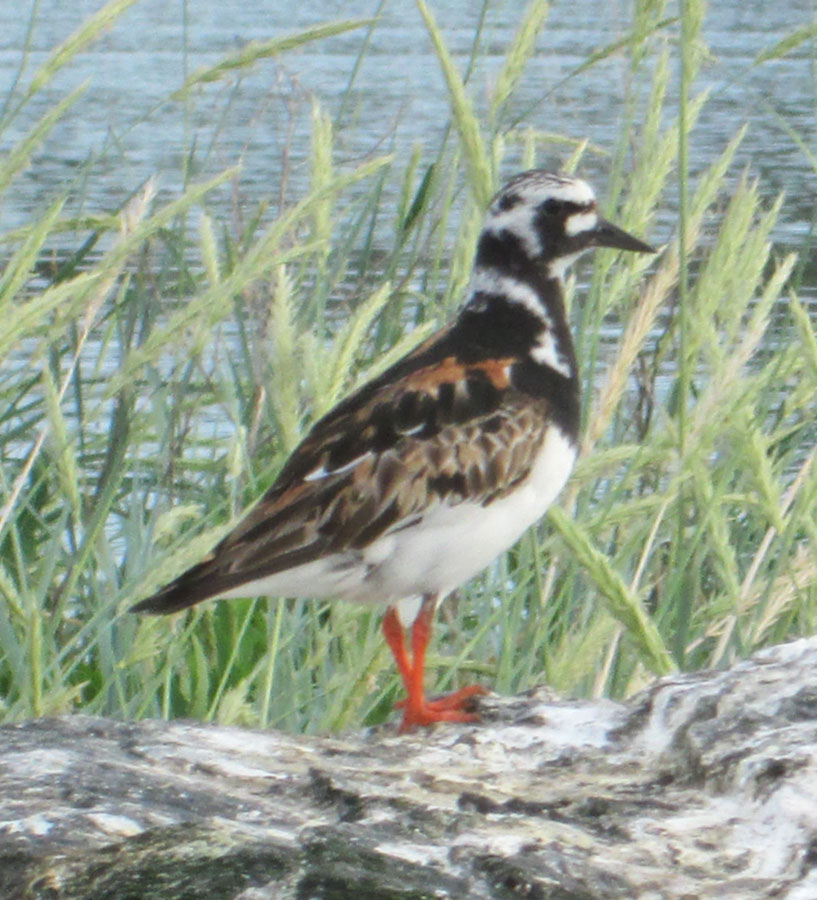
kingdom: Animalia
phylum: Chordata
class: Aves
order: Charadriiformes
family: Scolopacidae
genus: Arenaria
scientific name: Arenaria interpres
